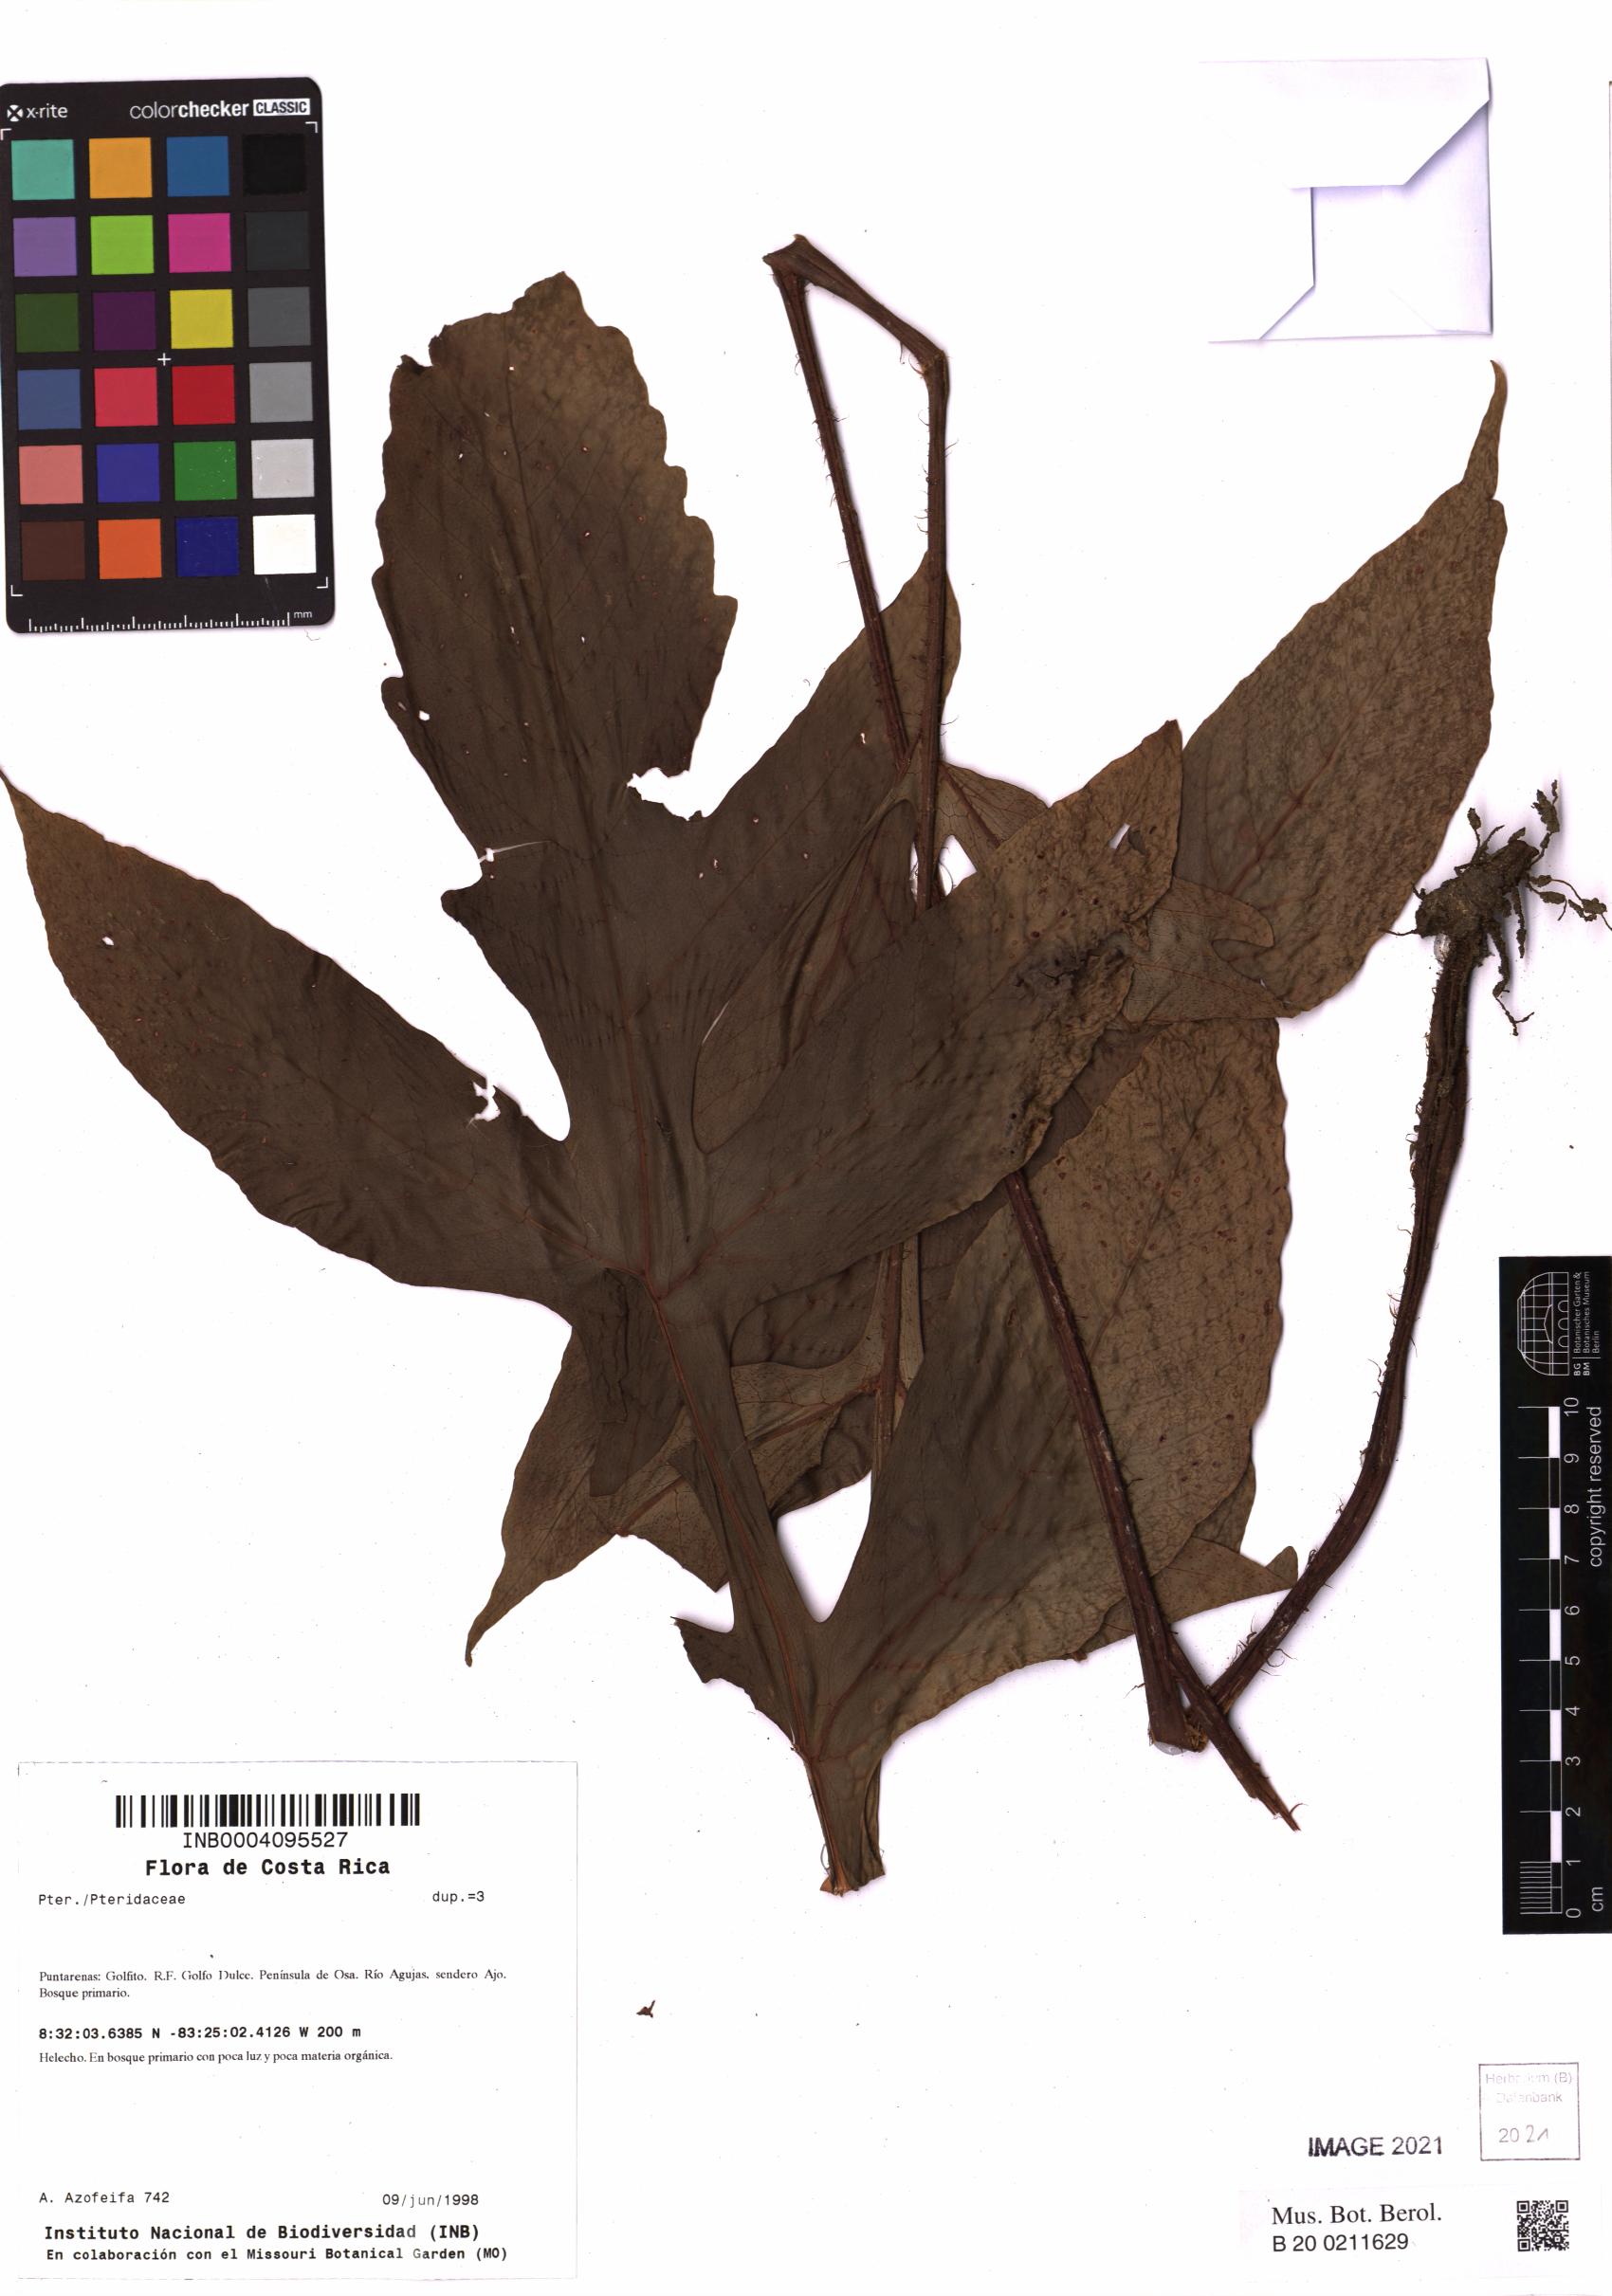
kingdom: Plantae
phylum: Tracheophyta
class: Polypodiopsida
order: Polypodiales
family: Tectariaceae
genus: Hypoderris
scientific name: Hypoderris nicotianifolia
